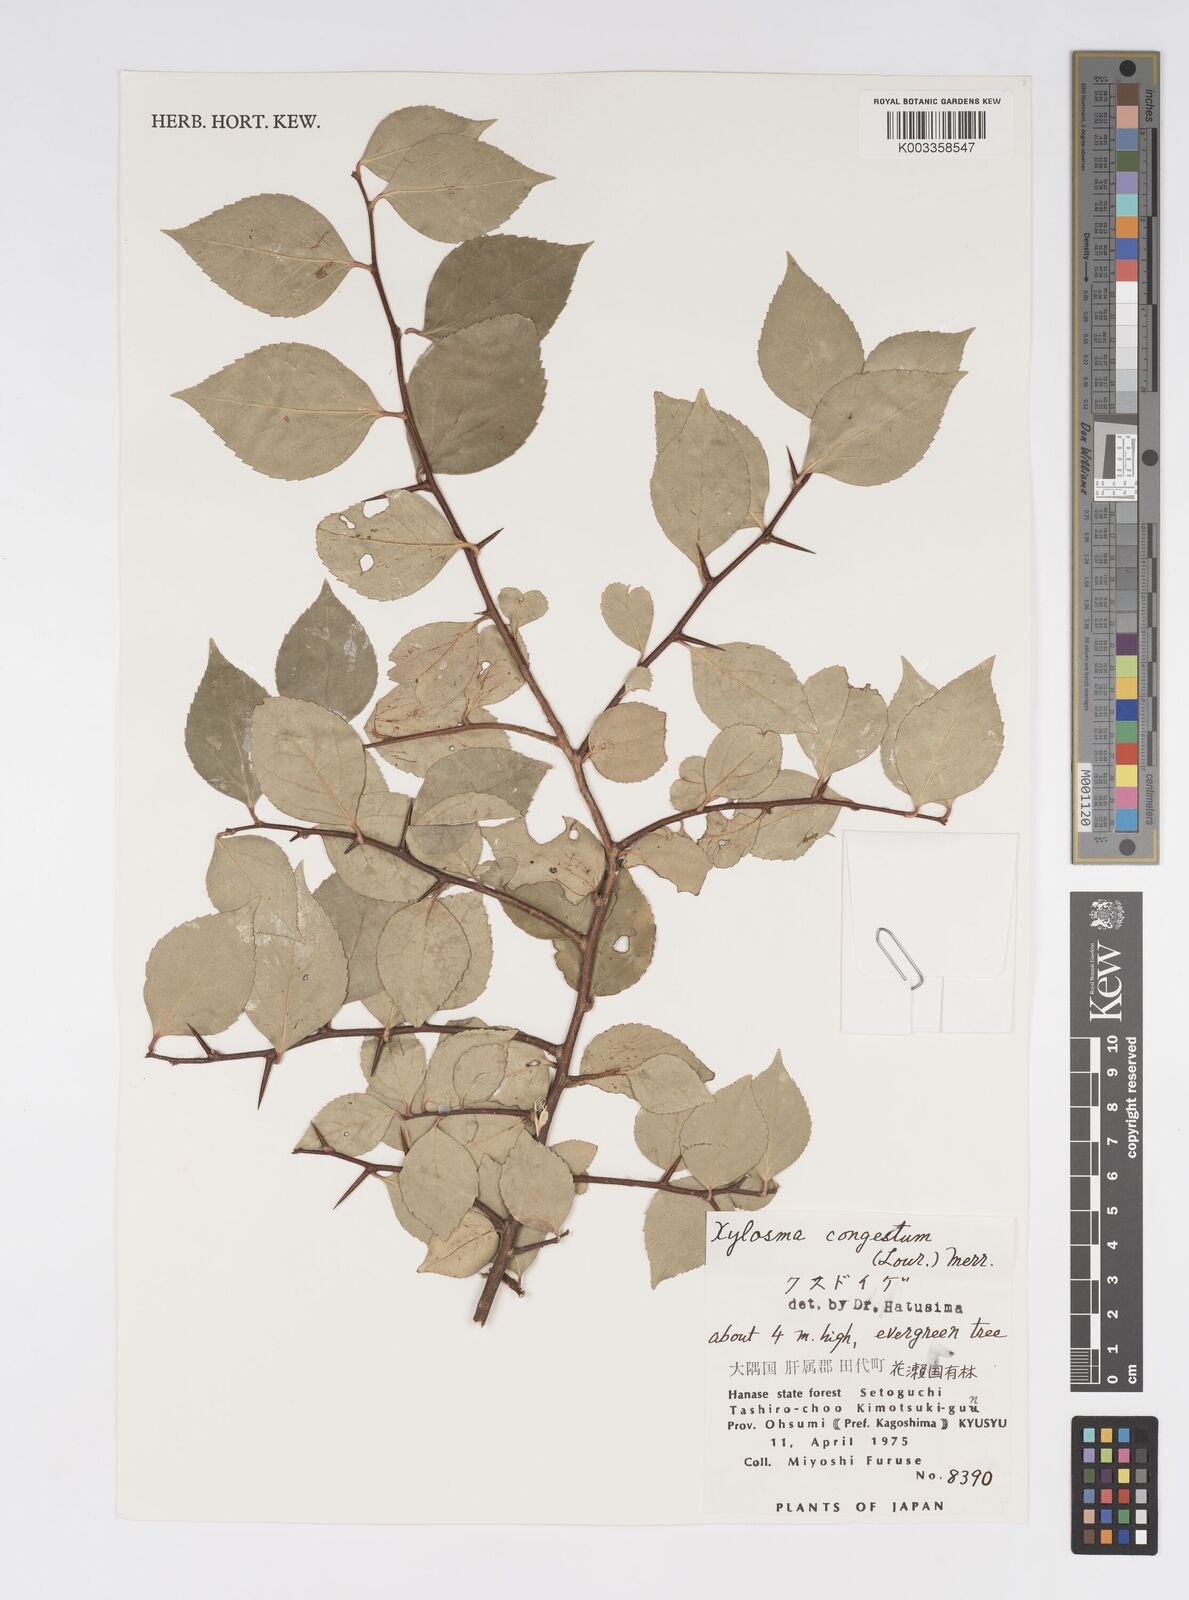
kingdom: Plantae
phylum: Tracheophyta
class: Magnoliopsida
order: Malpighiales
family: Salicaceae
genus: Xylosma
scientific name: Xylosma racemosum
